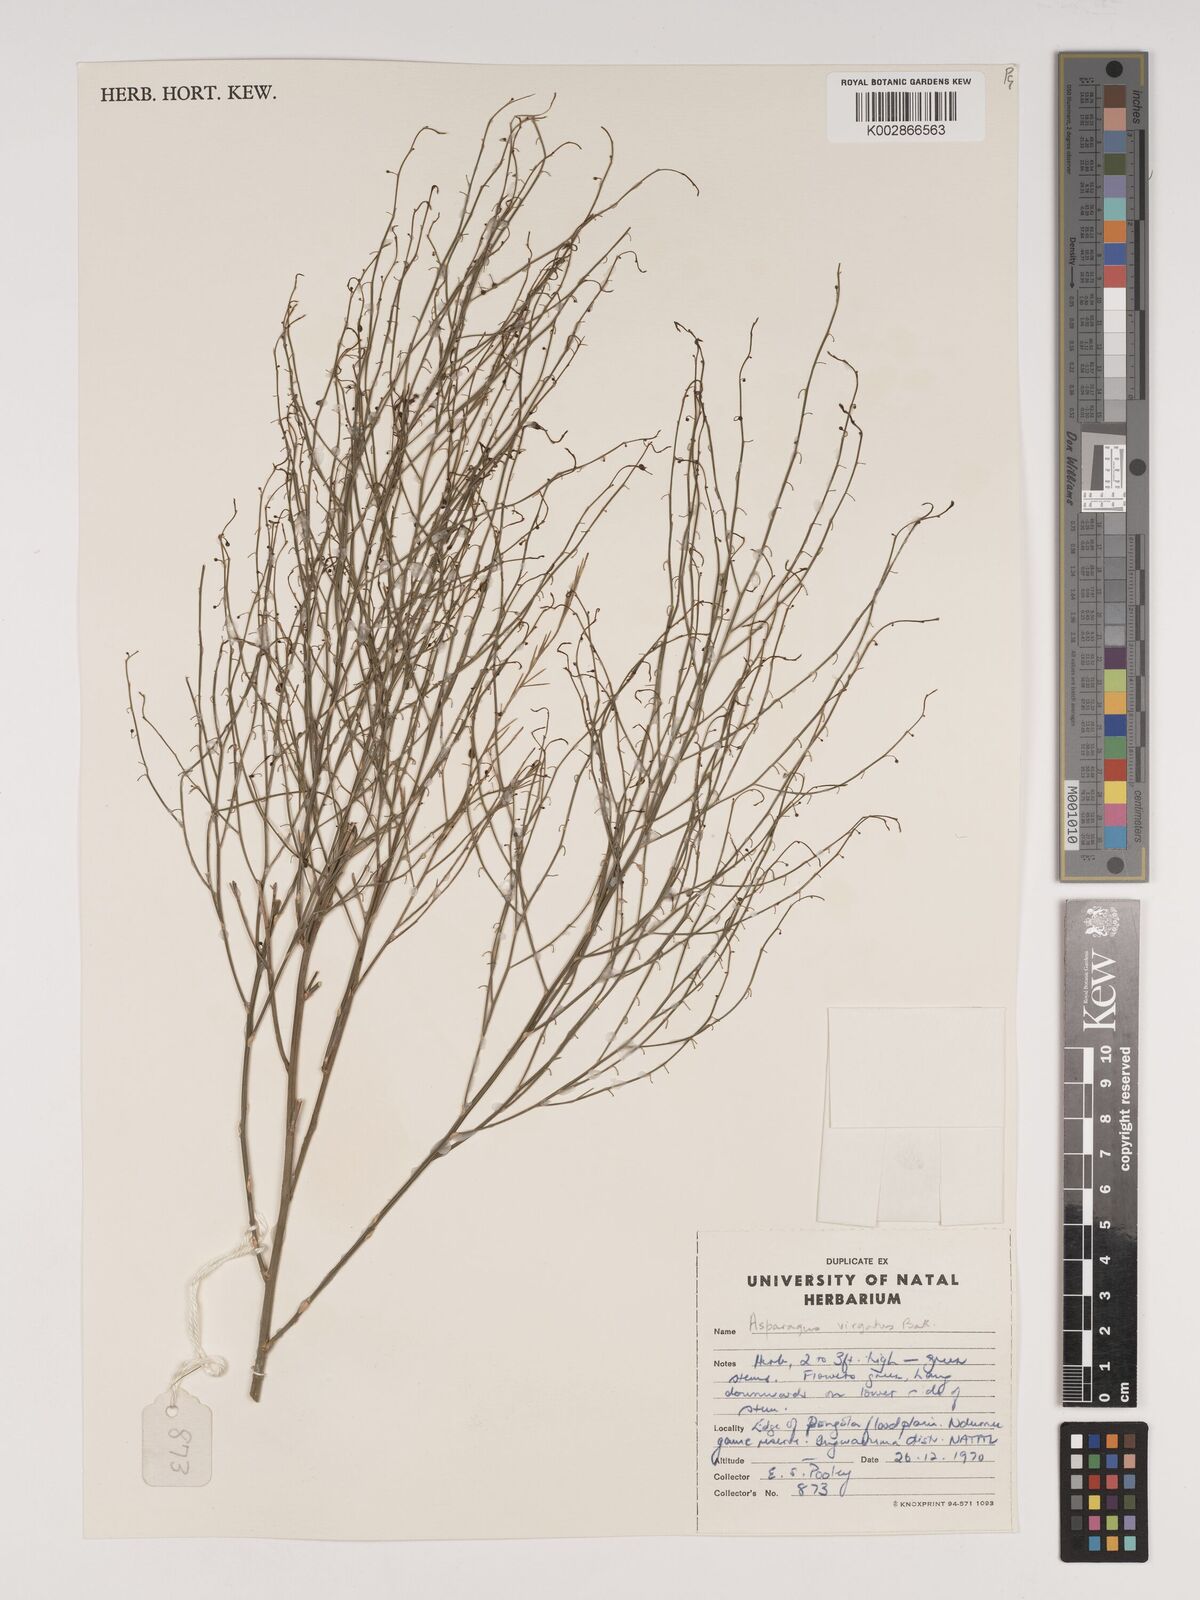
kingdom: Plantae
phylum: Tracheophyta
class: Liliopsida
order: Asparagales
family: Asparagaceae
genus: Asparagus
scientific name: Asparagus virgatus
